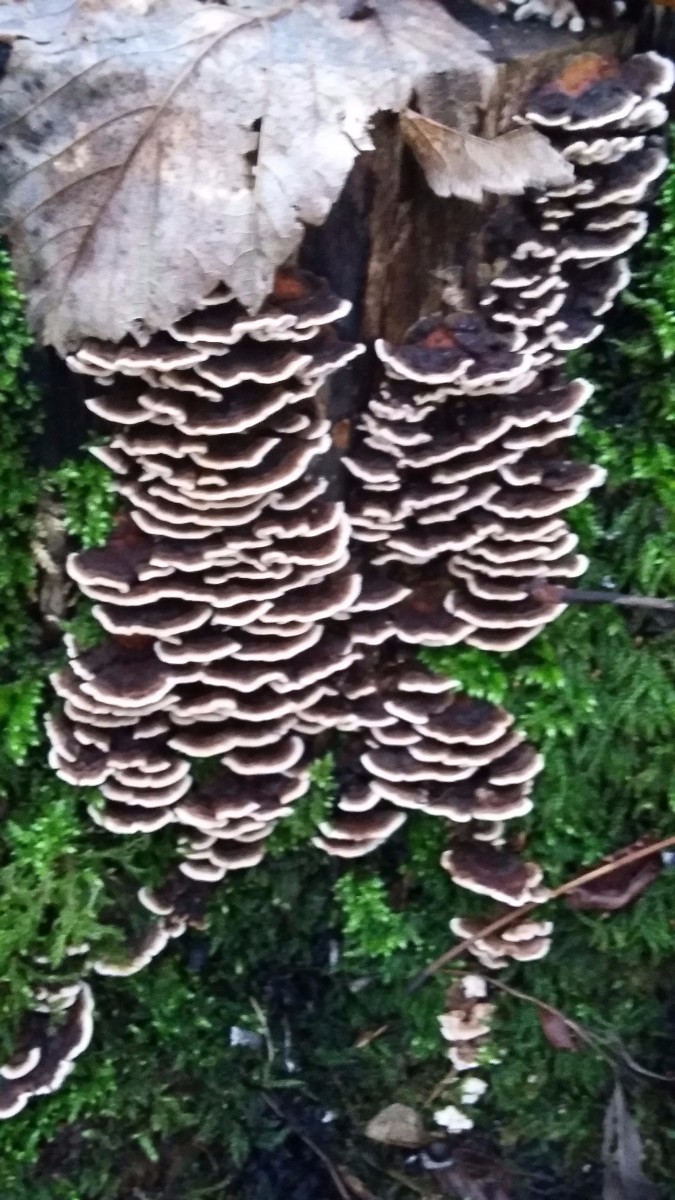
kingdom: Fungi
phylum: Basidiomycota
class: Agaricomycetes
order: Polyporales
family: Polyporaceae
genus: Trametes
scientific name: Trametes versicolor
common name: broget læderporesvamp
